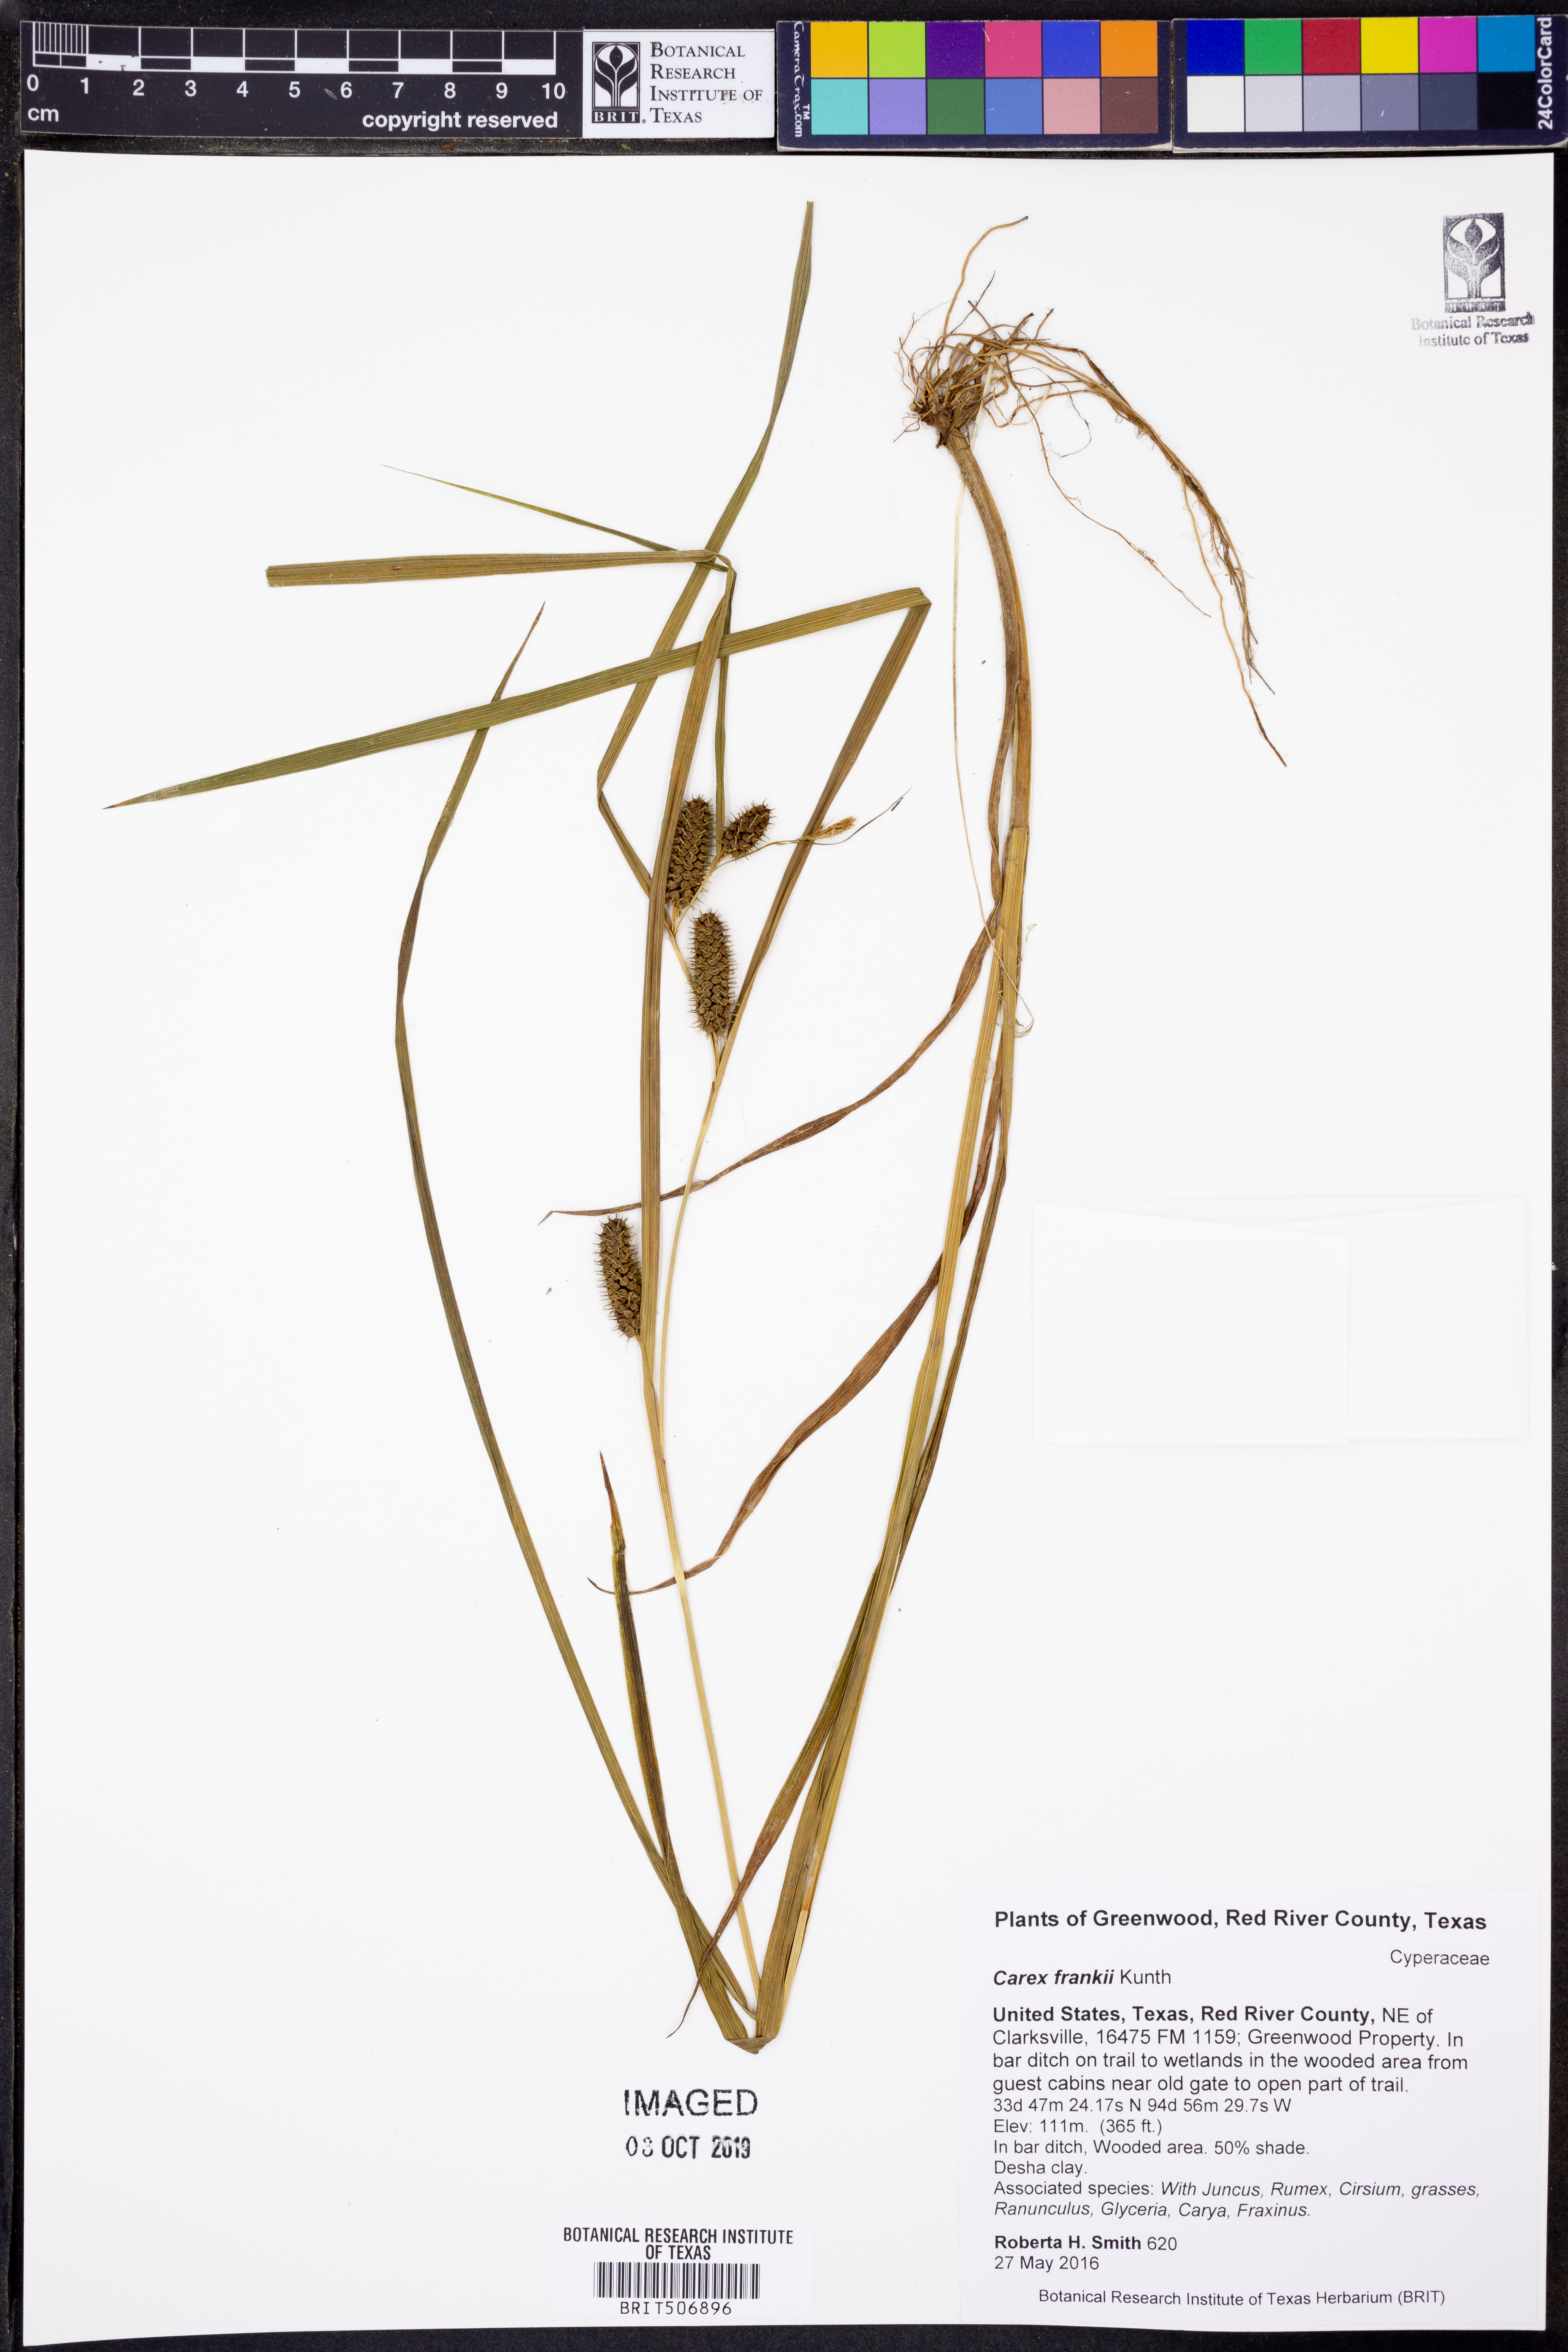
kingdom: Plantae
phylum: Tracheophyta
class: Liliopsida
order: Poales
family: Cyperaceae
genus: Carex
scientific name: Carex frankii
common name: Frank's sedge
